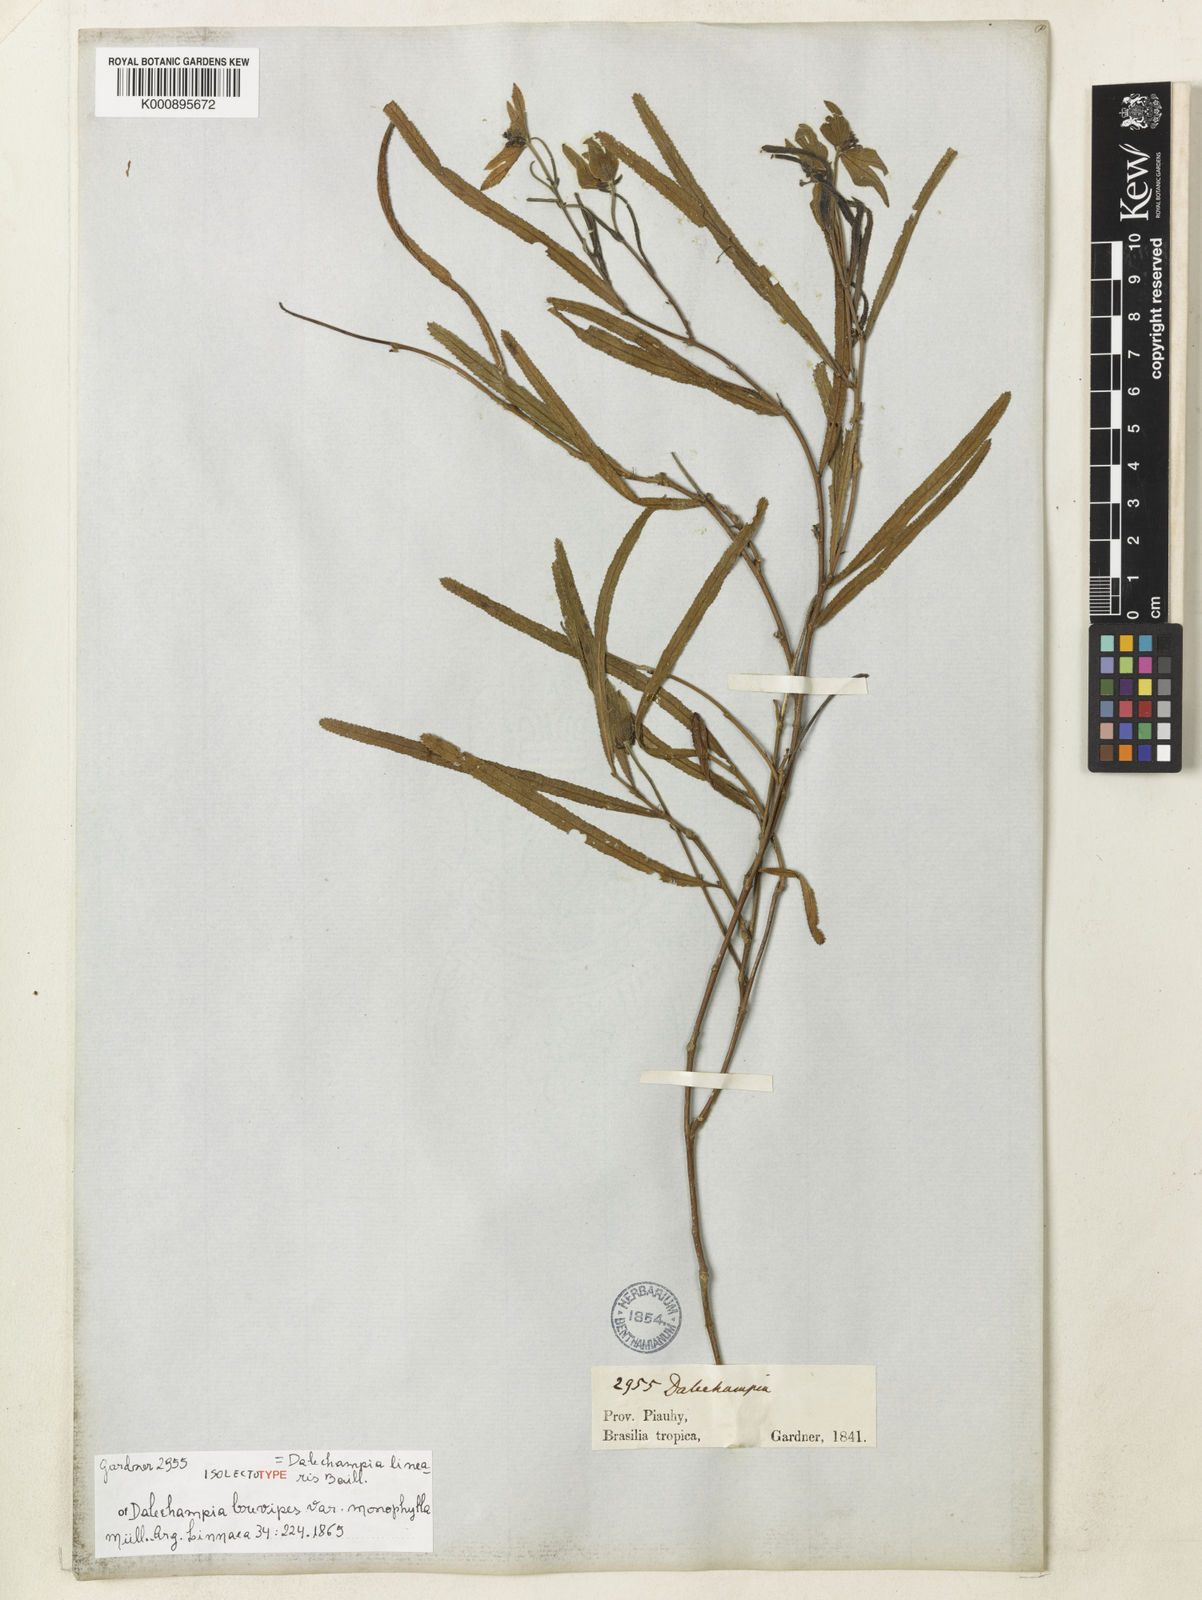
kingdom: Plantae
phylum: Tracheophyta
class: Magnoliopsida
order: Malpighiales
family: Euphorbiaceae
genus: Dalechampia
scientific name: Dalechampia linearis
